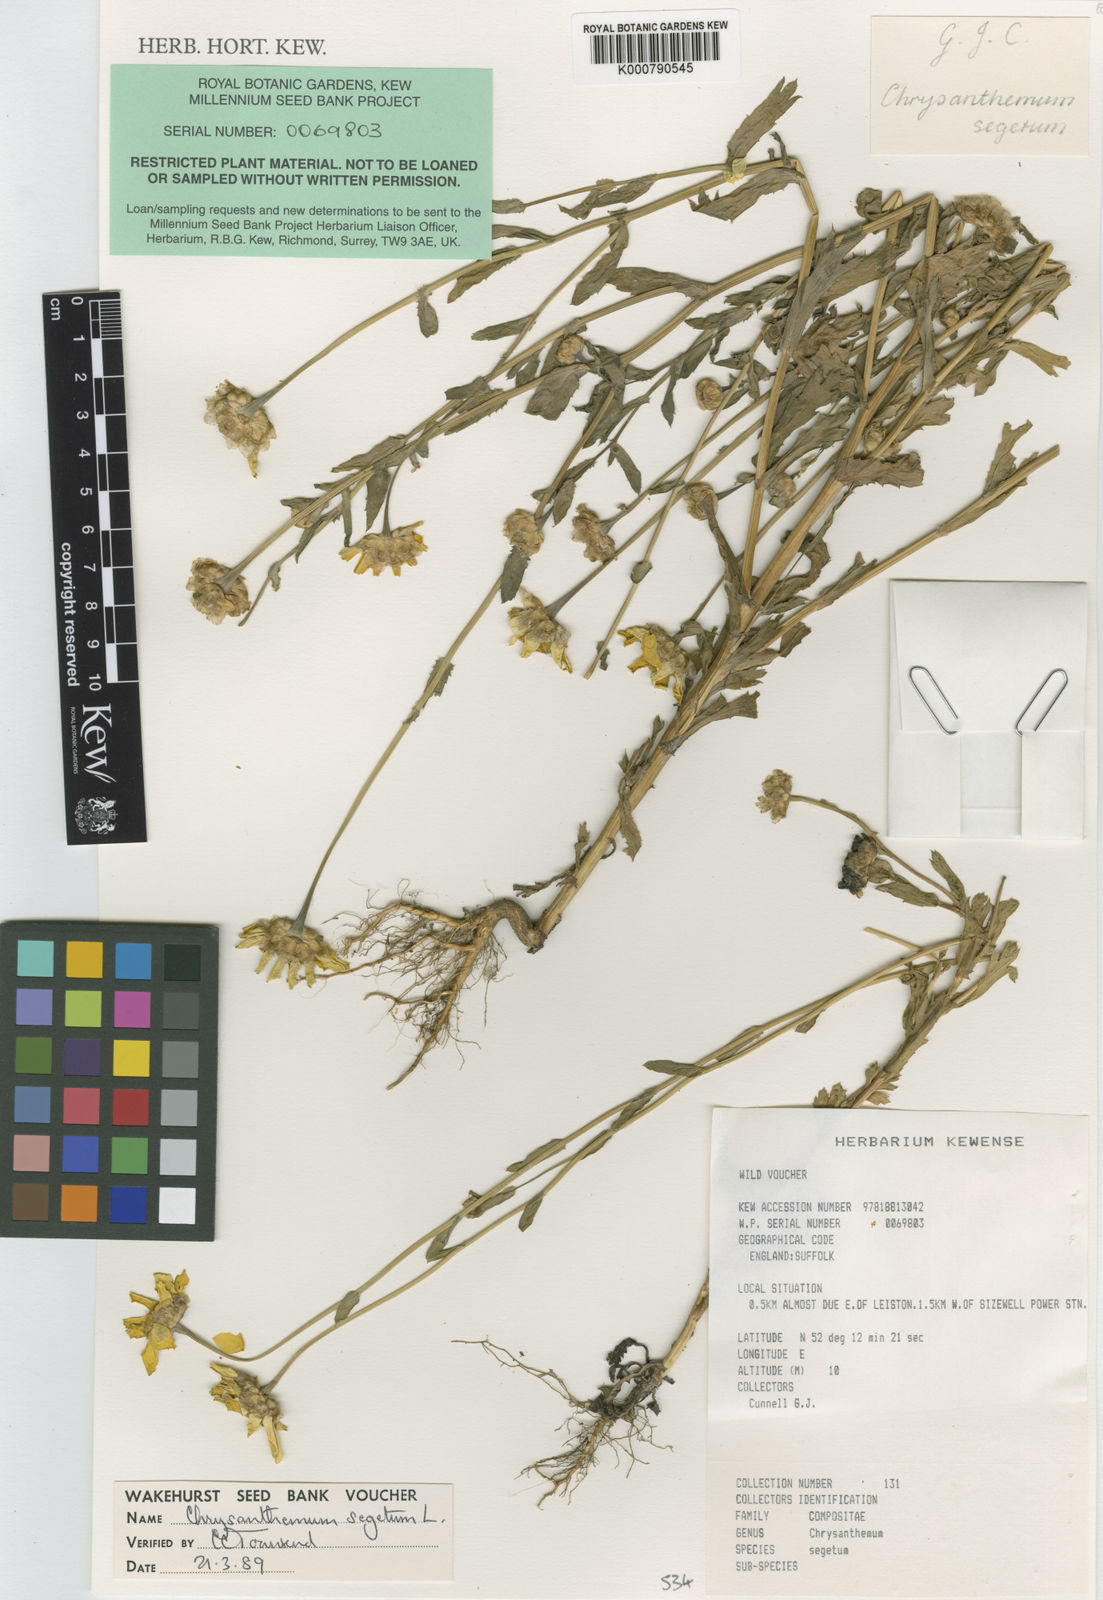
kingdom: Plantae
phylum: Tracheophyta
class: Magnoliopsida
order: Asterales
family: Asteraceae
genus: Glebionis
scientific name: Glebionis segetum
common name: Corndaisy
